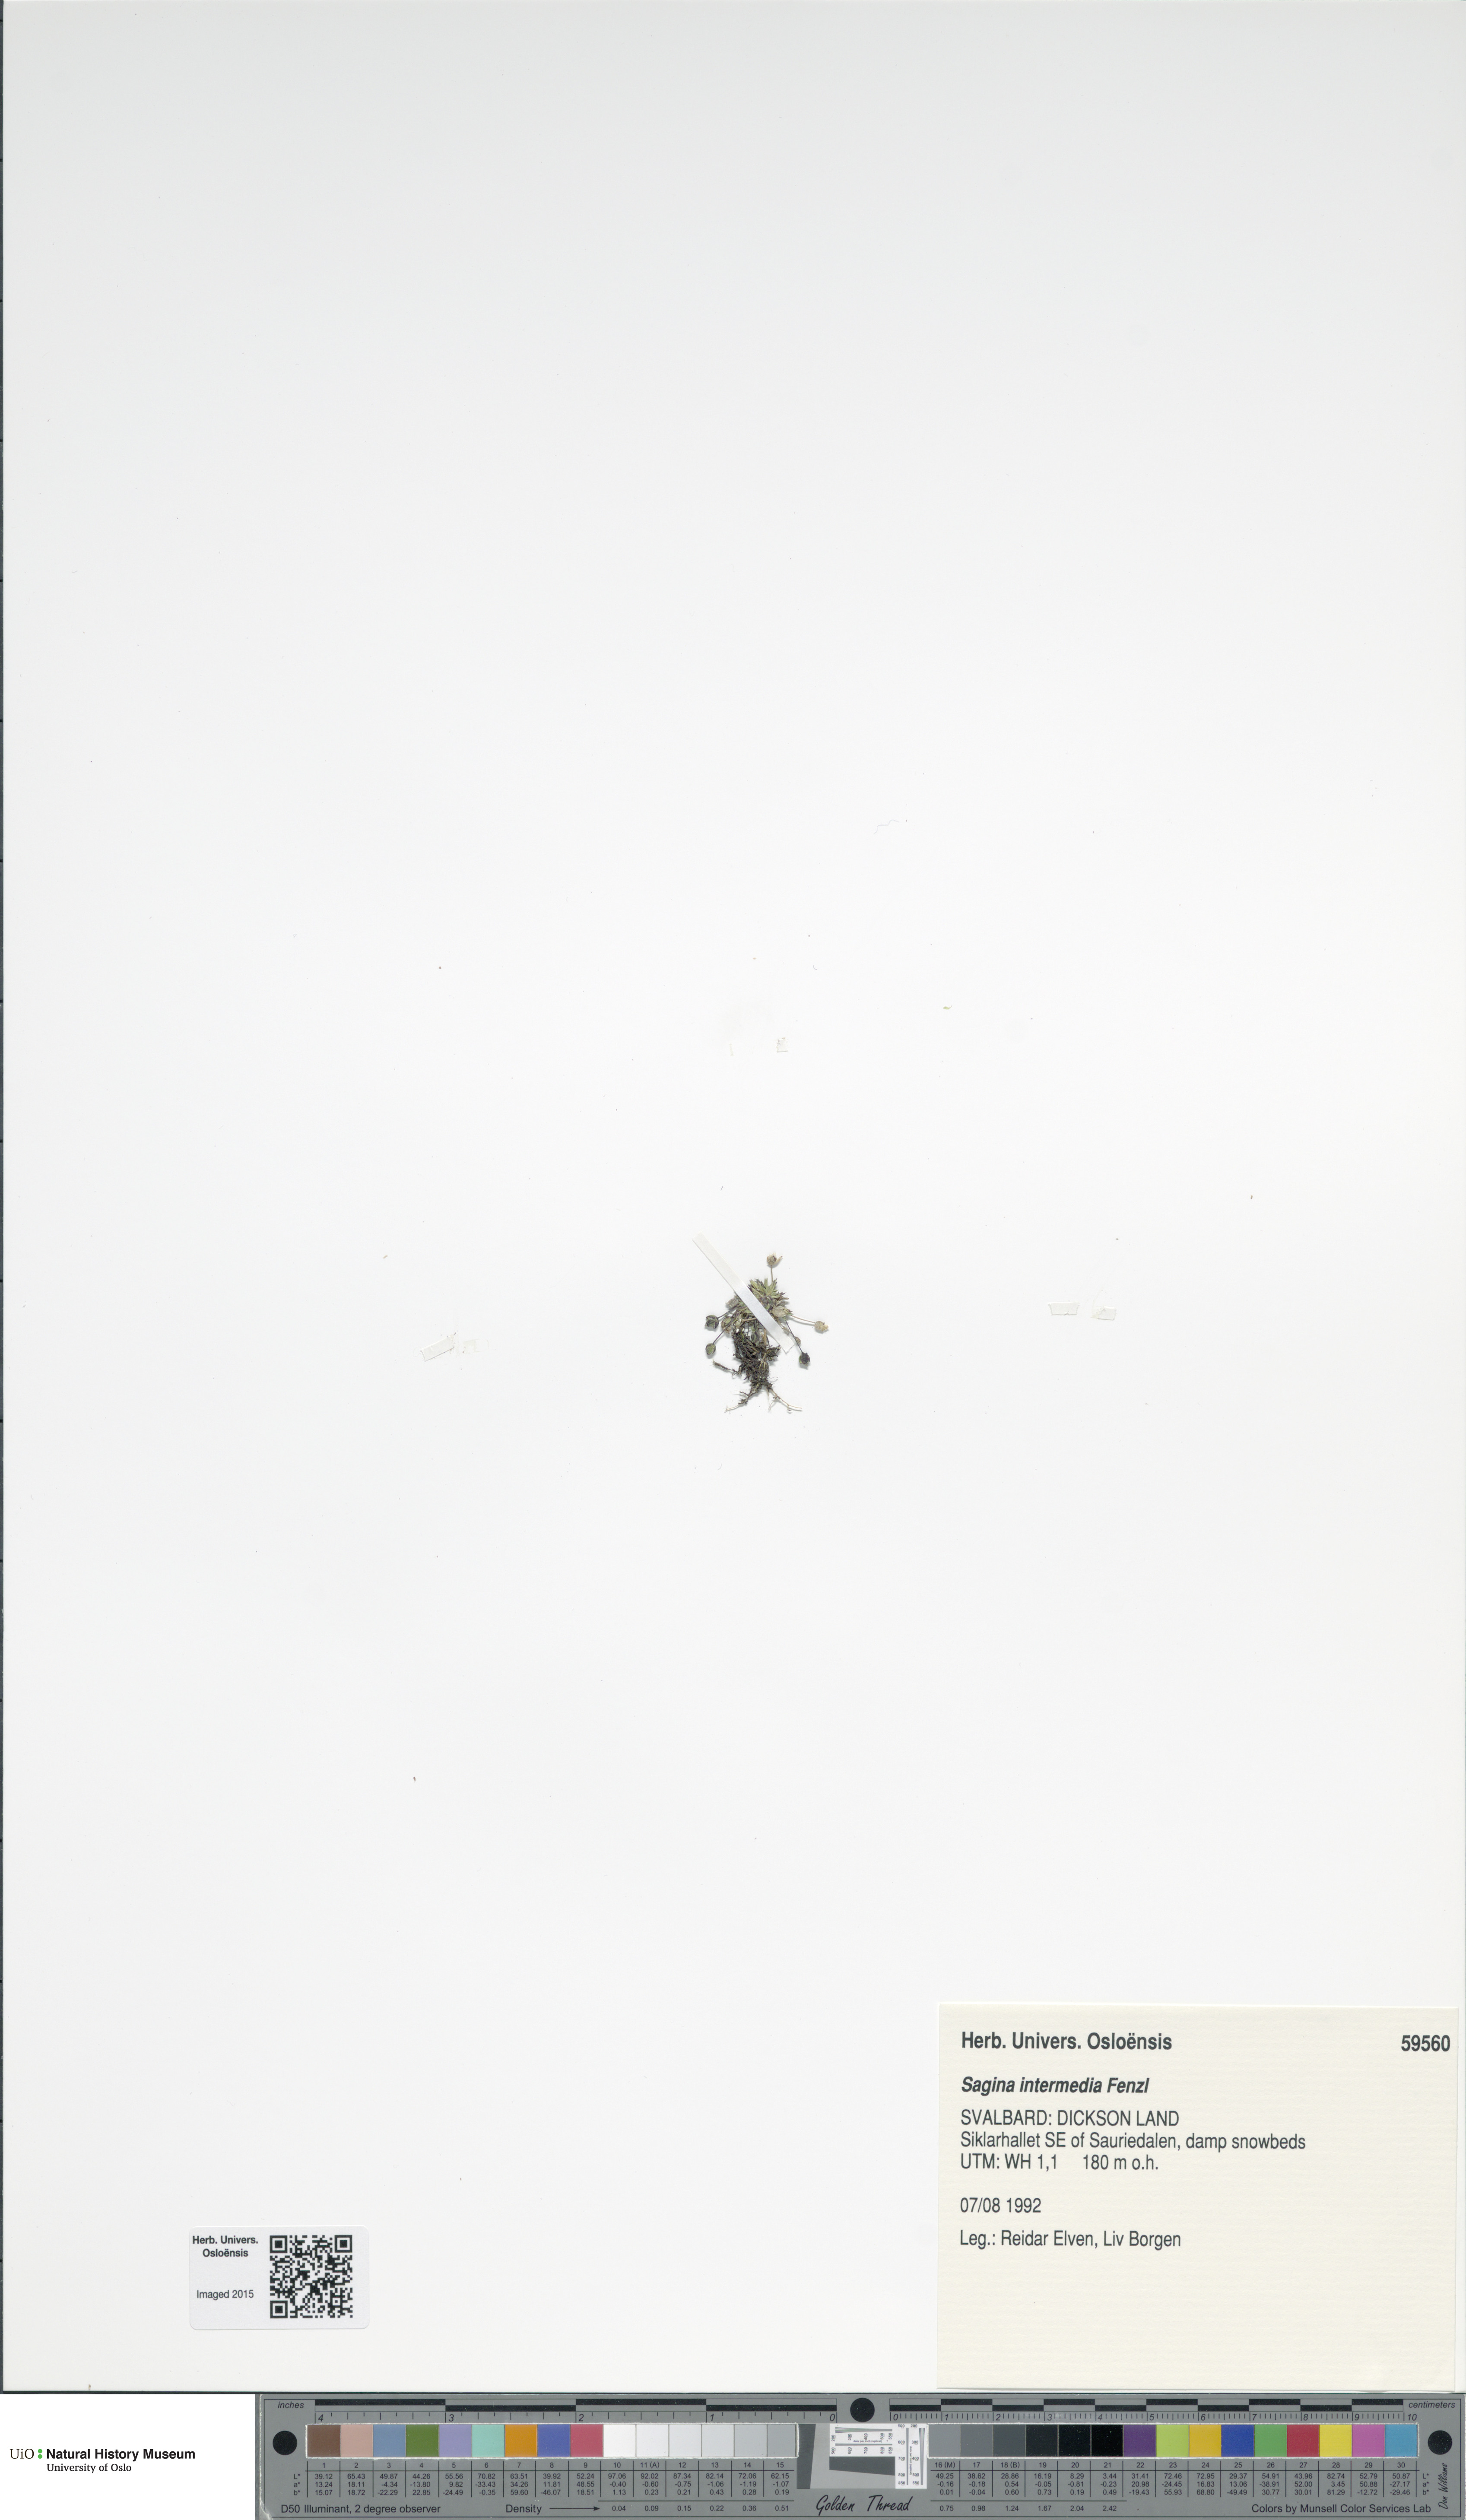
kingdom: Plantae
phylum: Tracheophyta
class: Magnoliopsida
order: Caryophyllales
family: Caryophyllaceae
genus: Sagina
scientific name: Sagina nivalis
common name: Snow pearlwort
